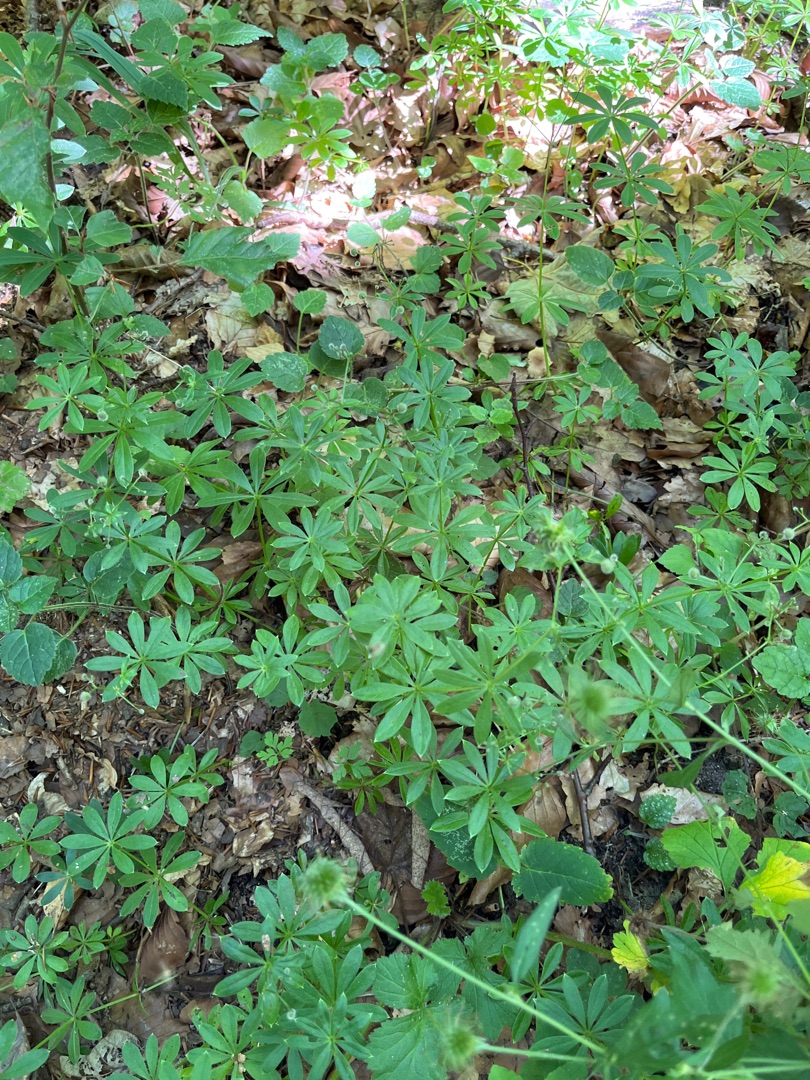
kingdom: Plantae
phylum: Tracheophyta
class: Magnoliopsida
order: Gentianales
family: Rubiaceae
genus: Galium
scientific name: Galium odoratum
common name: Skovmærke
